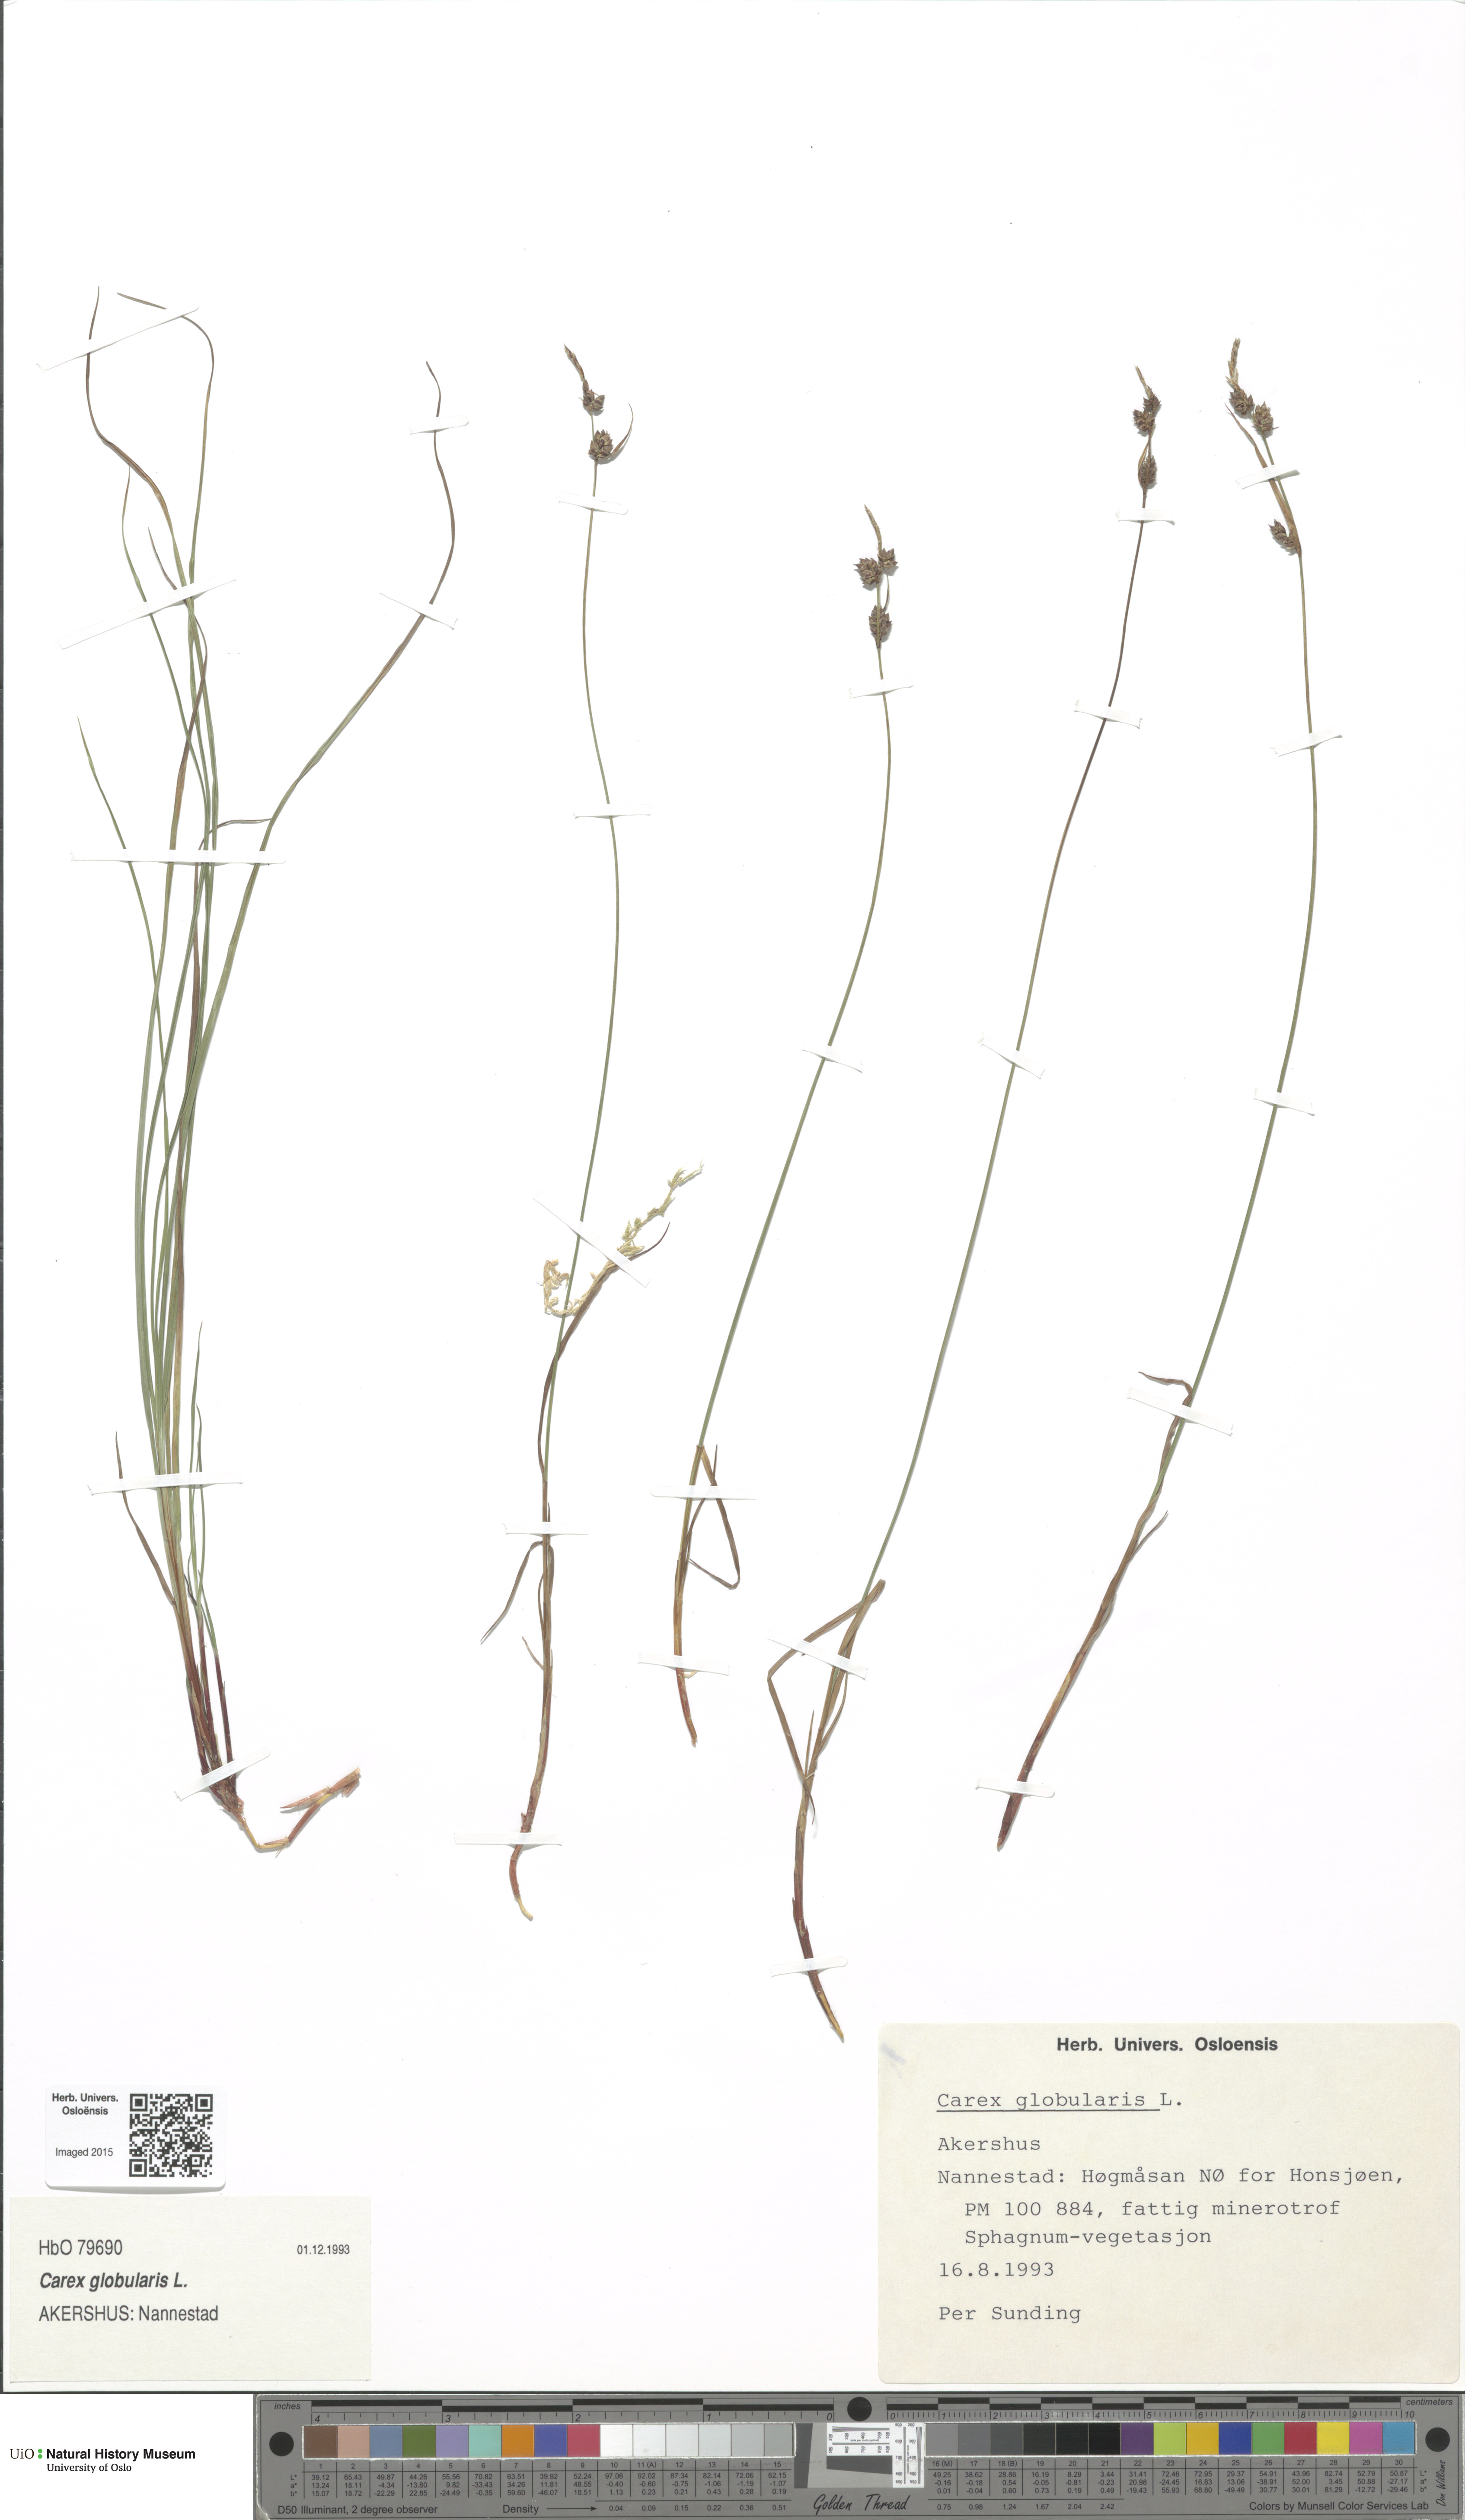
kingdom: Plantae
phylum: Tracheophyta
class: Liliopsida
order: Poales
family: Cyperaceae
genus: Carex
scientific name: Carex globularis
